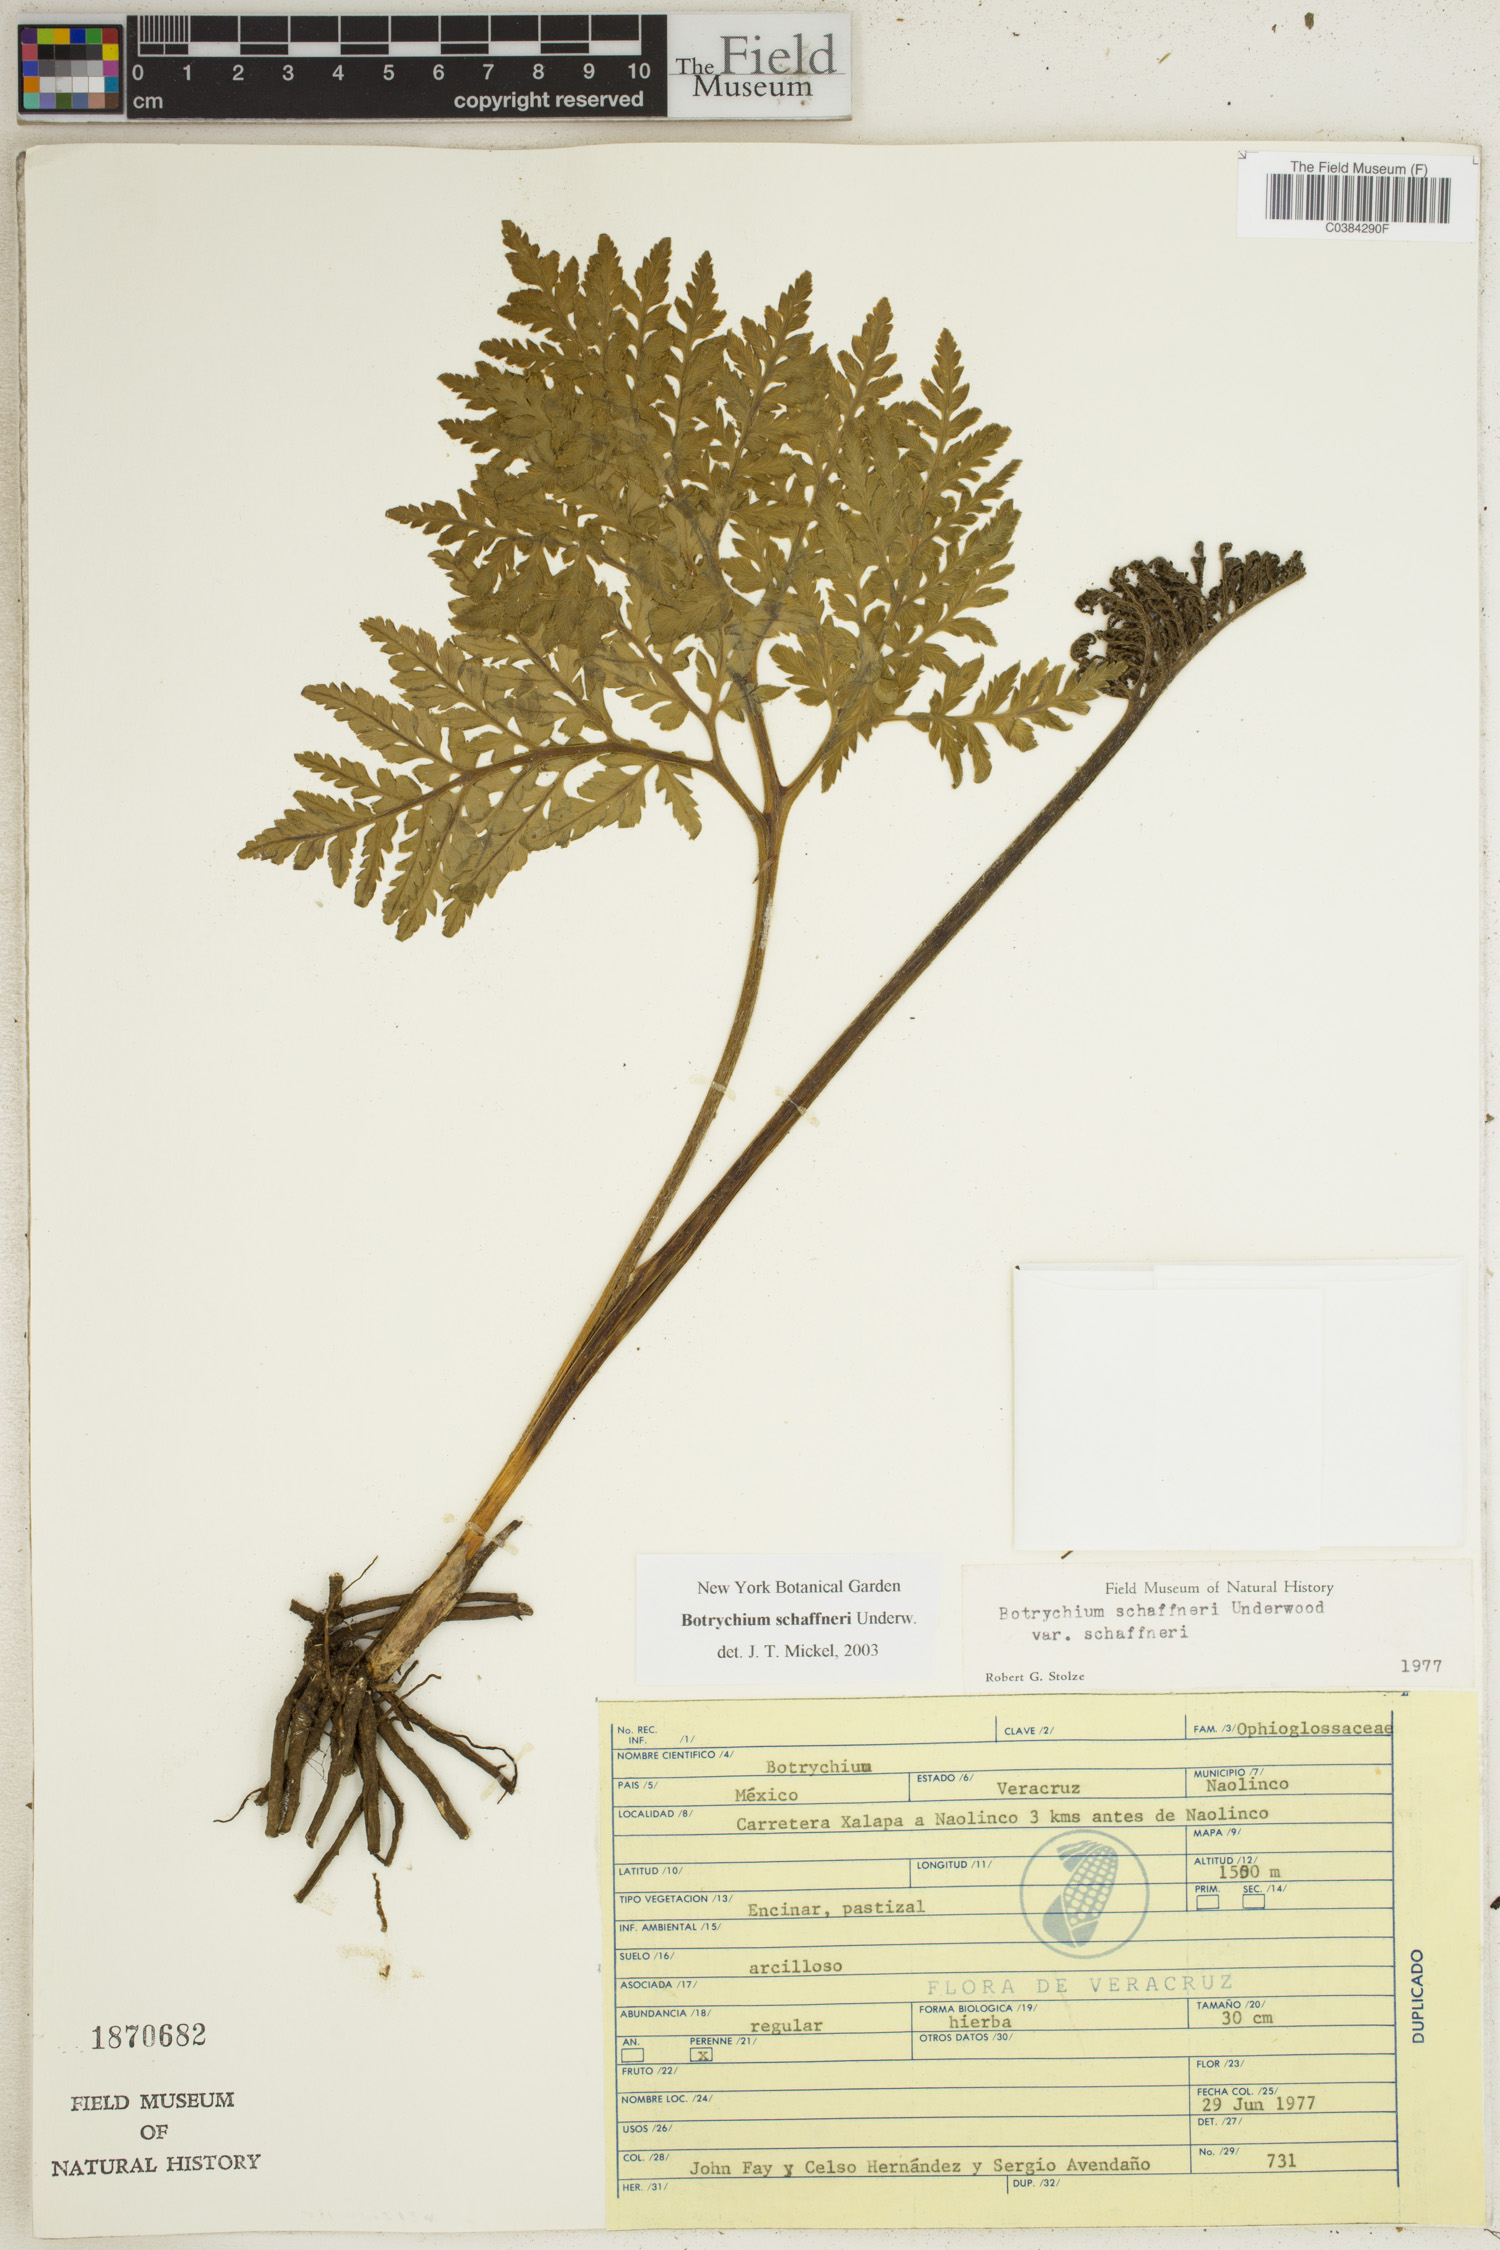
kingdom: Plantae
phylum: Tracheophyta
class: Polypodiopsida
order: Ophioglossales
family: Ophioglossaceae
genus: Sceptridium
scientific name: Sceptridium schaffneri
